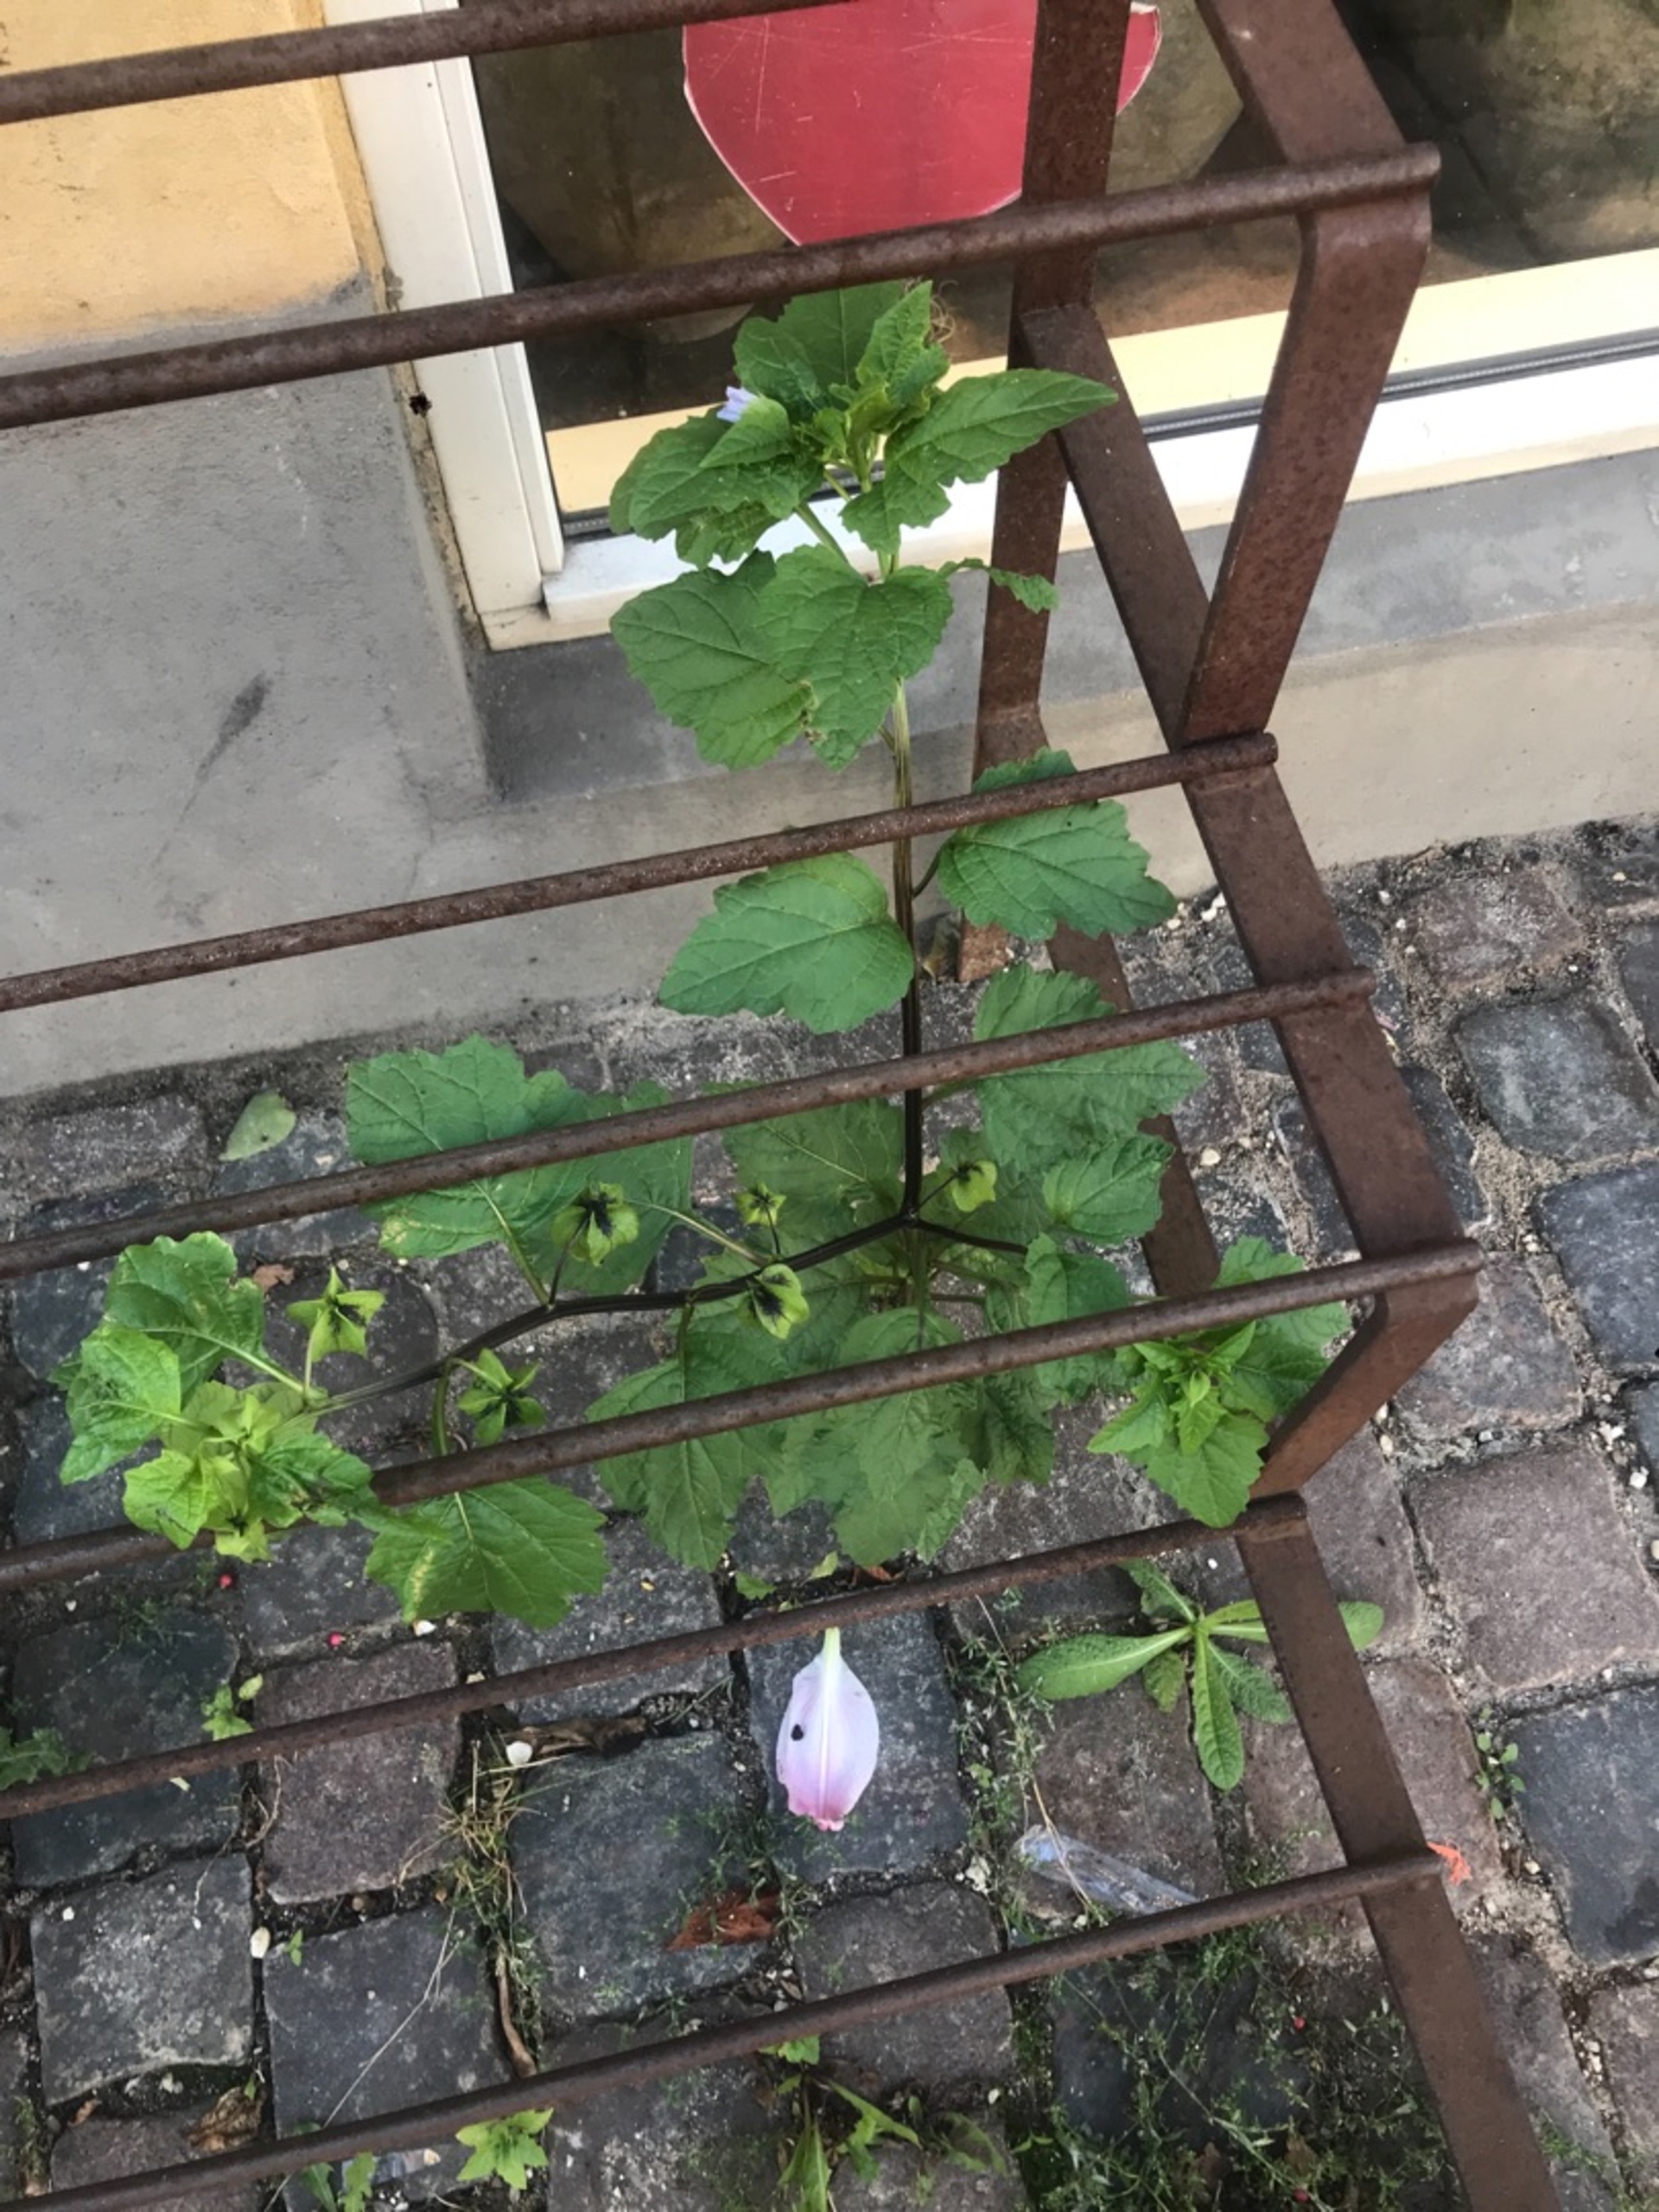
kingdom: Plantae
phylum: Tracheophyta
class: Magnoliopsida
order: Solanales
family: Solanaceae
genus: Nicandra
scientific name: Nicandra physalodes
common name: Kantbæger
